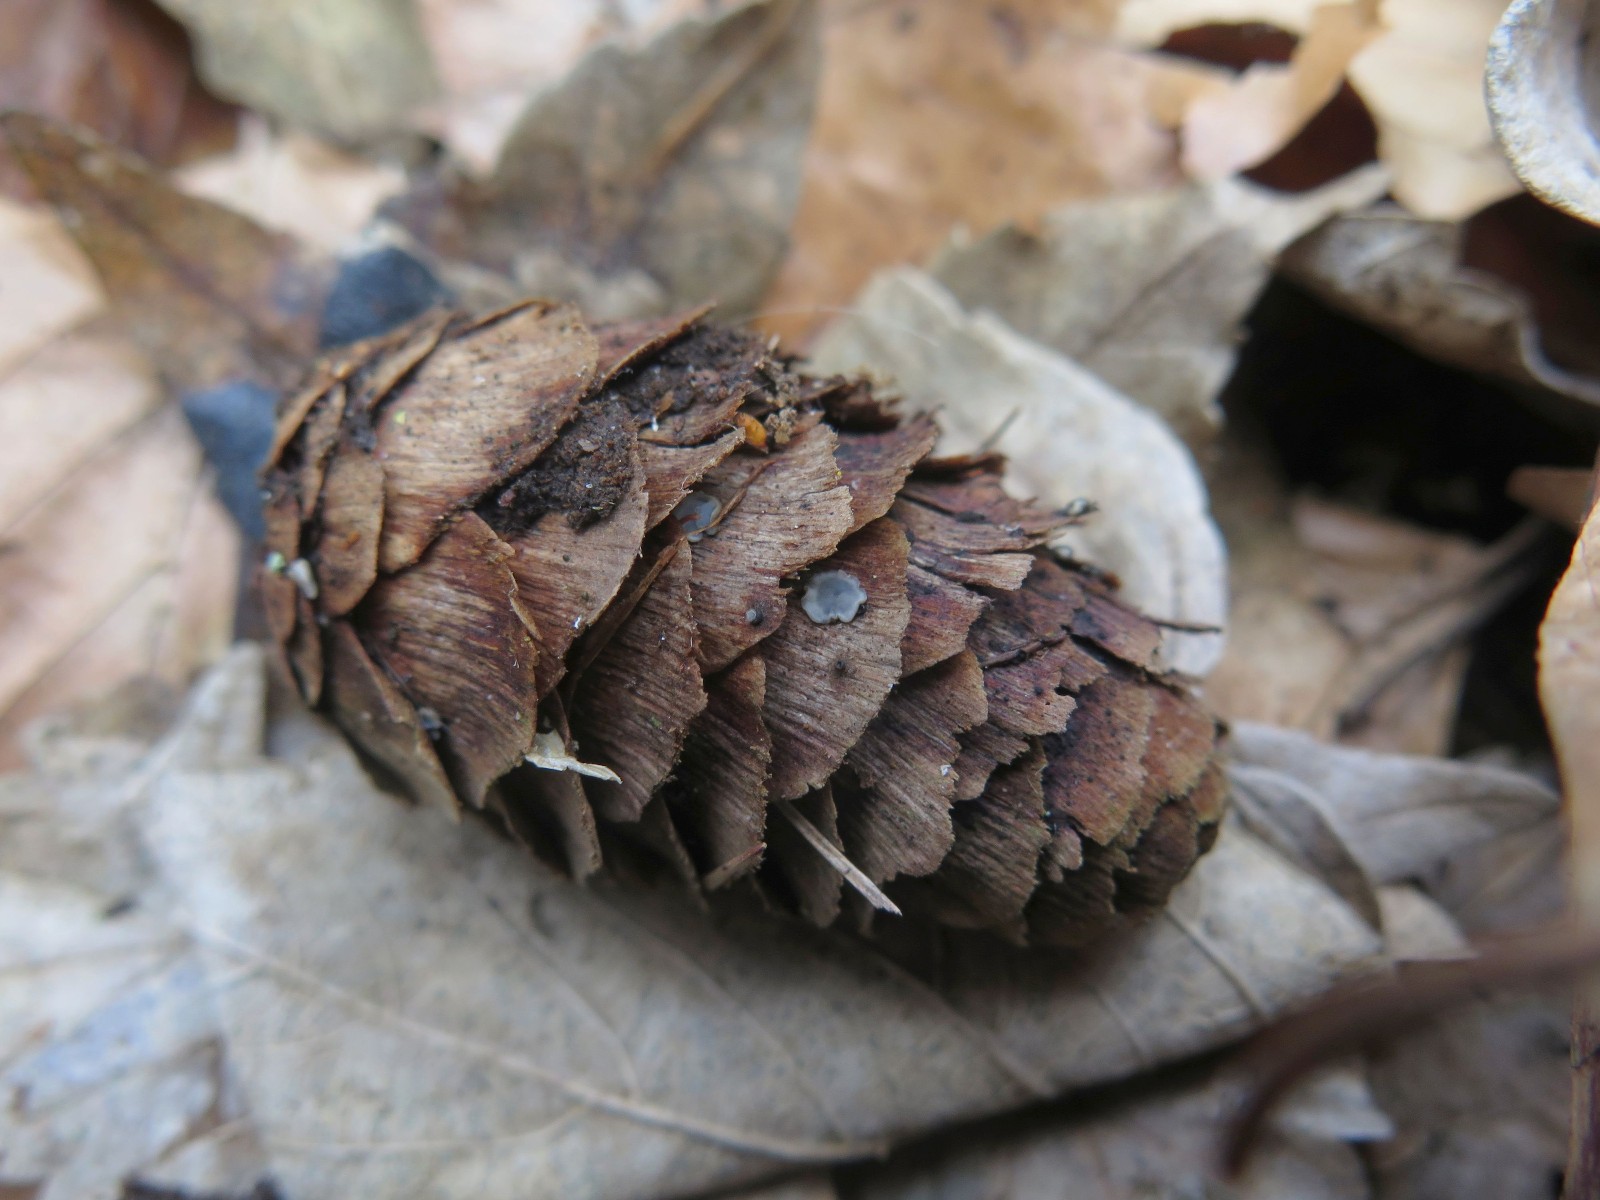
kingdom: Fungi
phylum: Ascomycota
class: Leotiomycetes
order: Helotiales
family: Mollisiaceae
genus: Mollisia
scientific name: Mollisia
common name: gråskive
